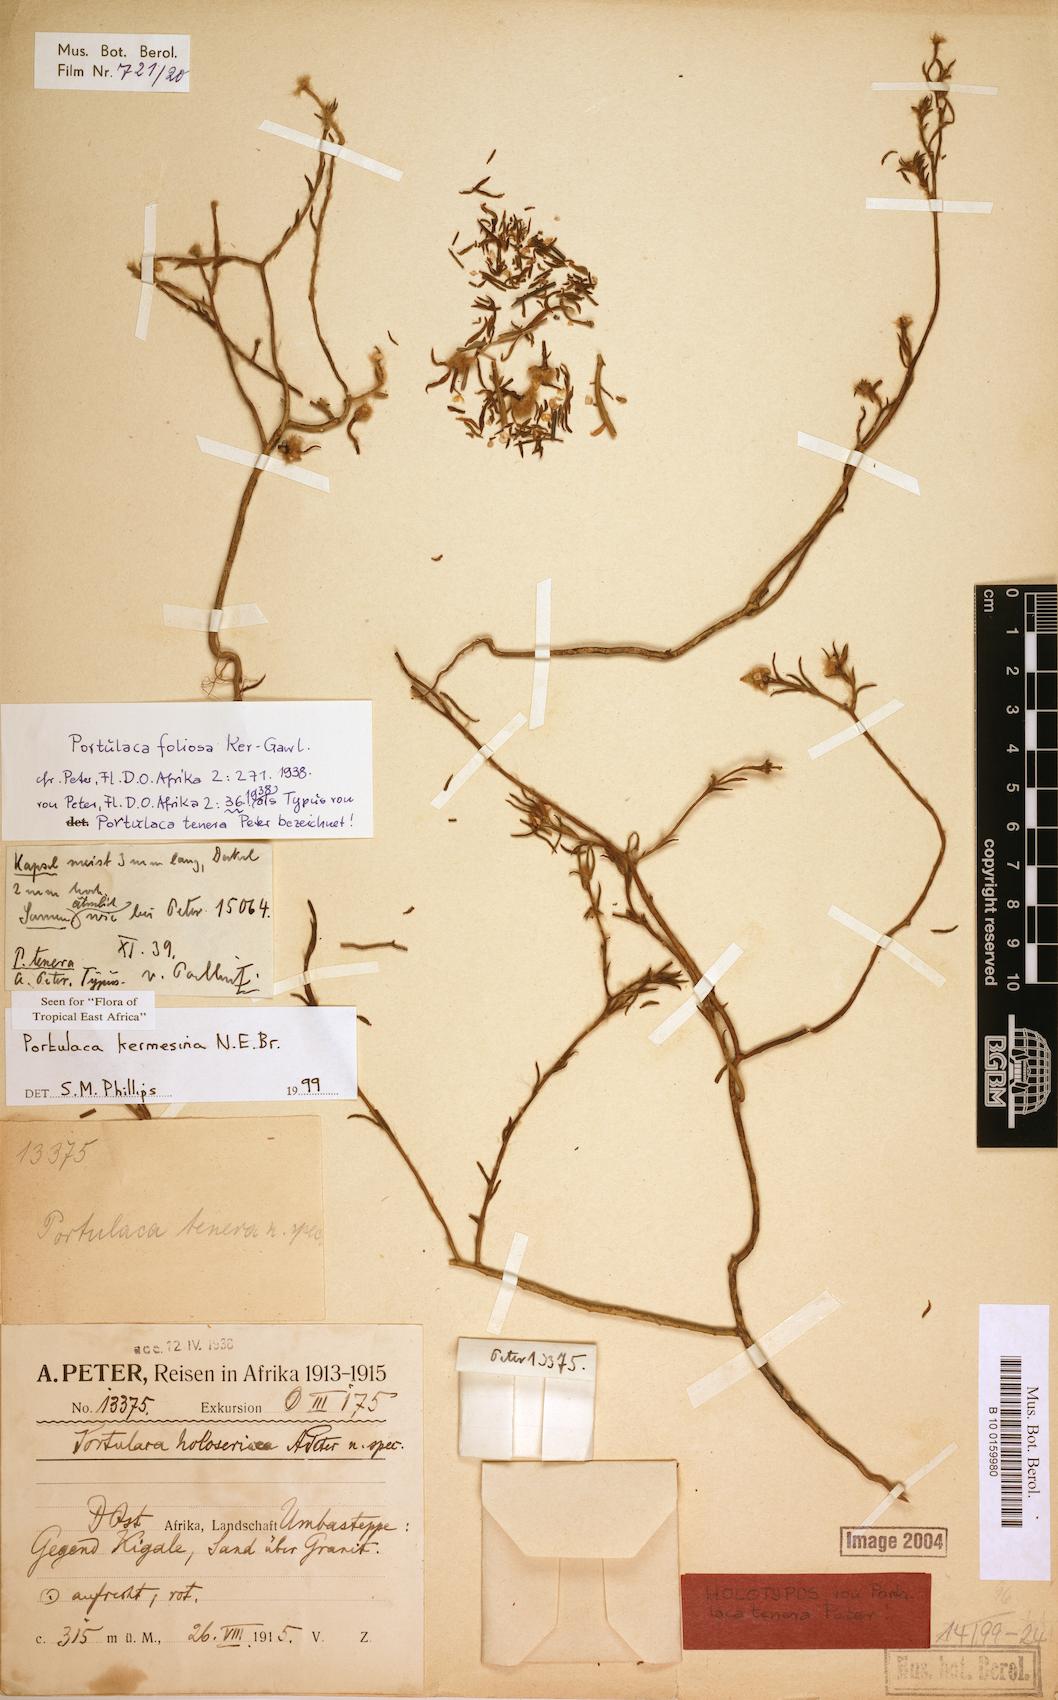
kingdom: Plantae
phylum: Tracheophyta
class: Magnoliopsida
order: Caryophyllales
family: Portulacaceae
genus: Portulaca
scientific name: Portulaca kermesina
